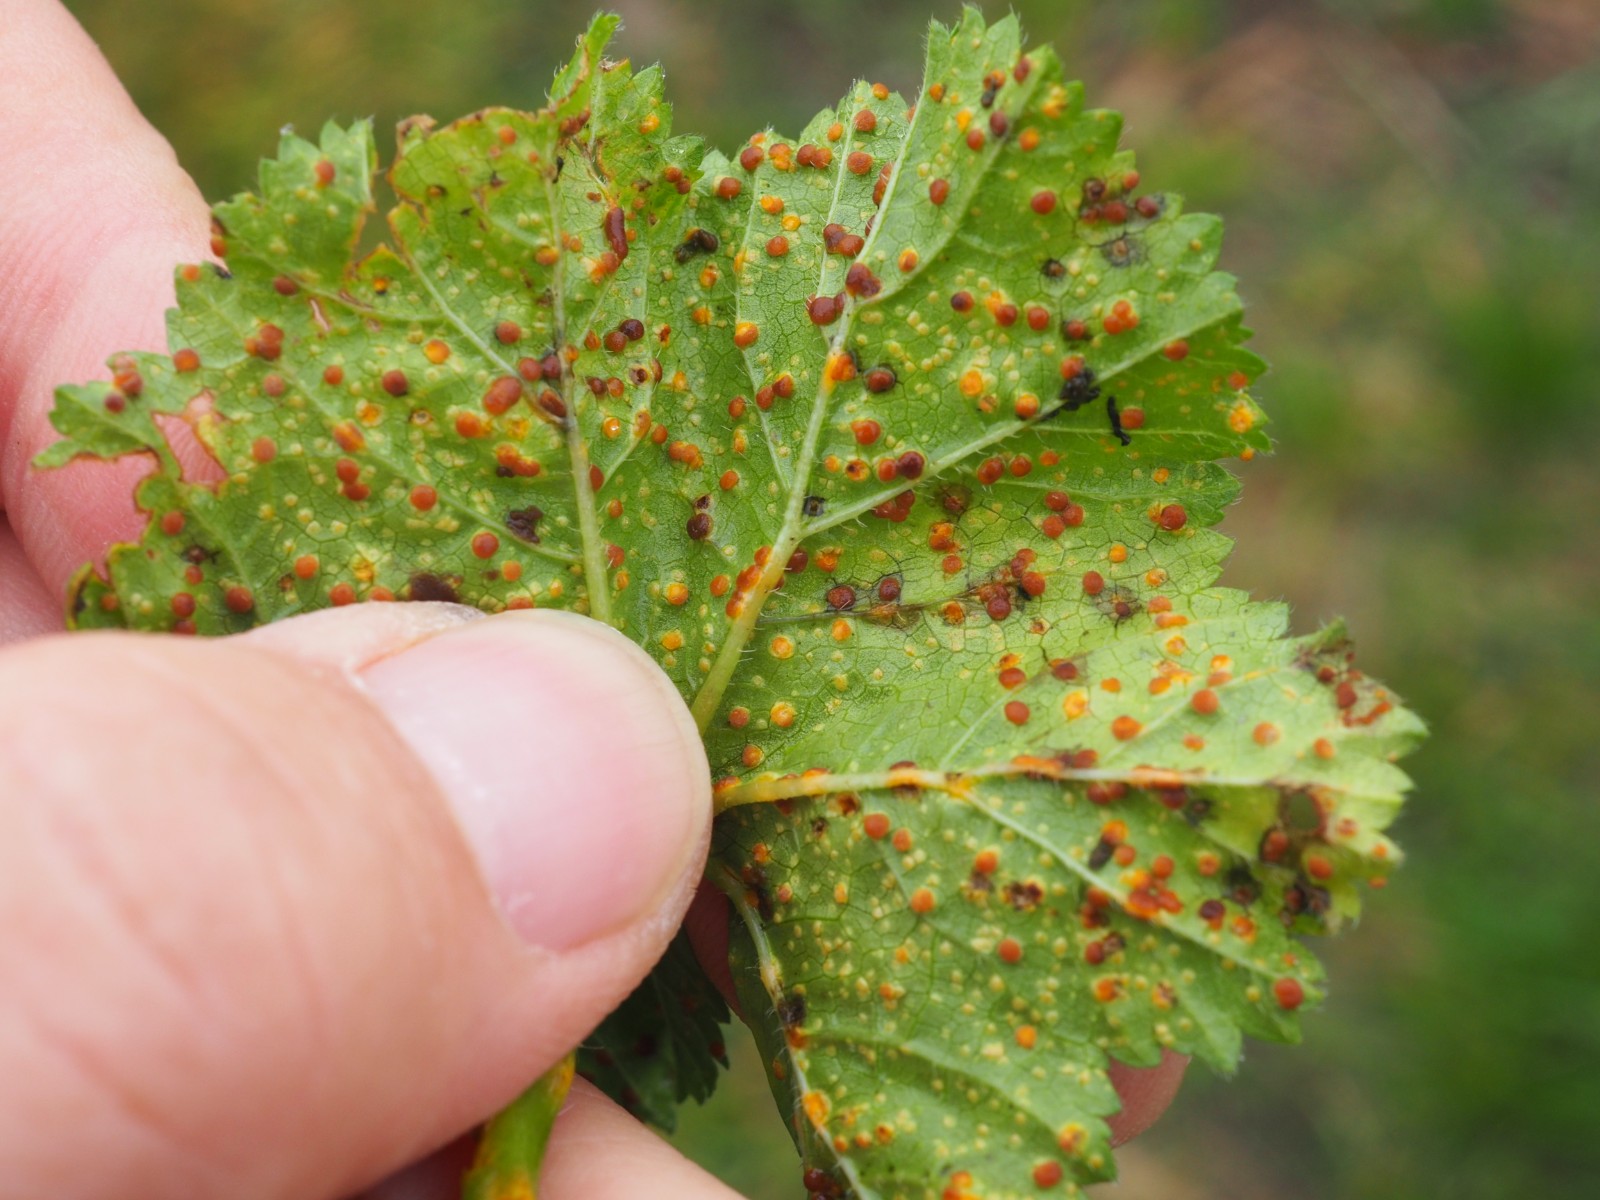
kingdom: Fungi
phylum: Basidiomycota
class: Pucciniomycetes
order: Pucciniales
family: Pucciniaceae
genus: Puccinia
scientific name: Puccinia malvacearum
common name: stokrose-tvecellerust
